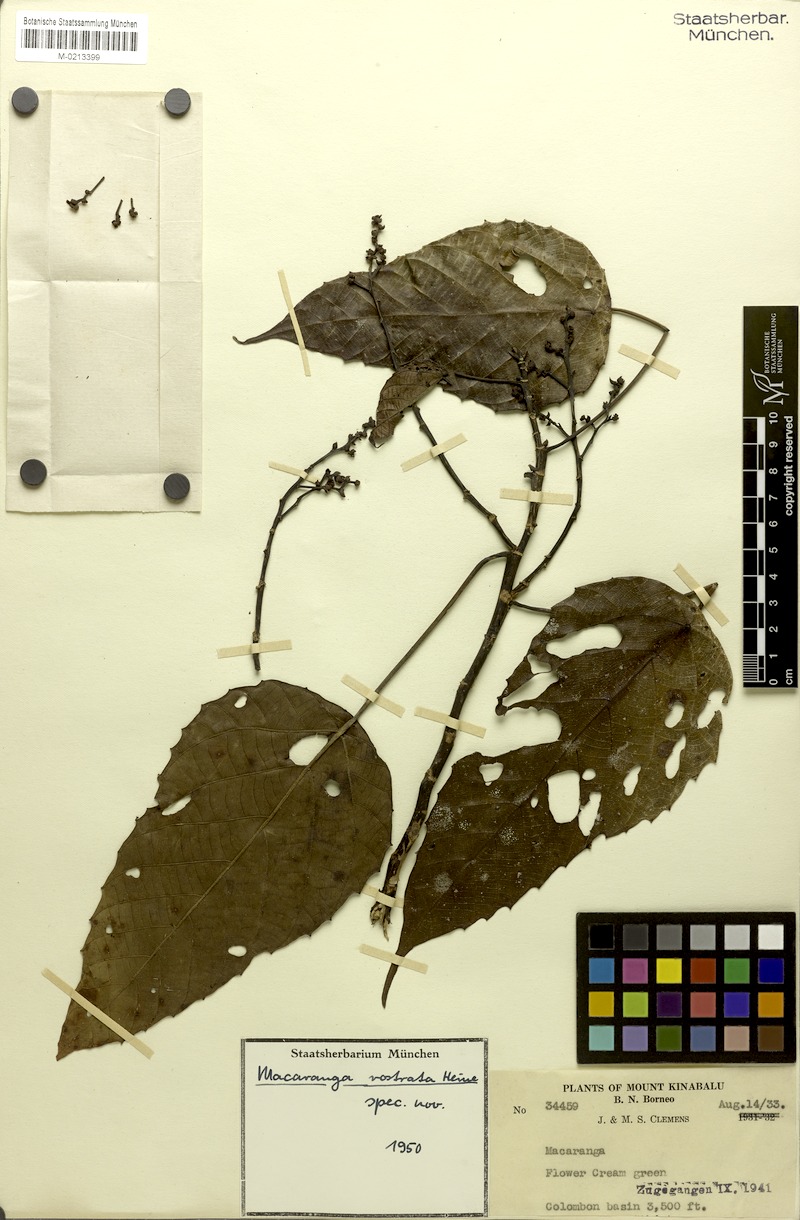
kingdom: Plantae
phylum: Tracheophyta
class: Magnoliopsida
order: Malpighiales
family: Euphorbiaceae
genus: Macaranga
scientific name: Macaranga rostrata
